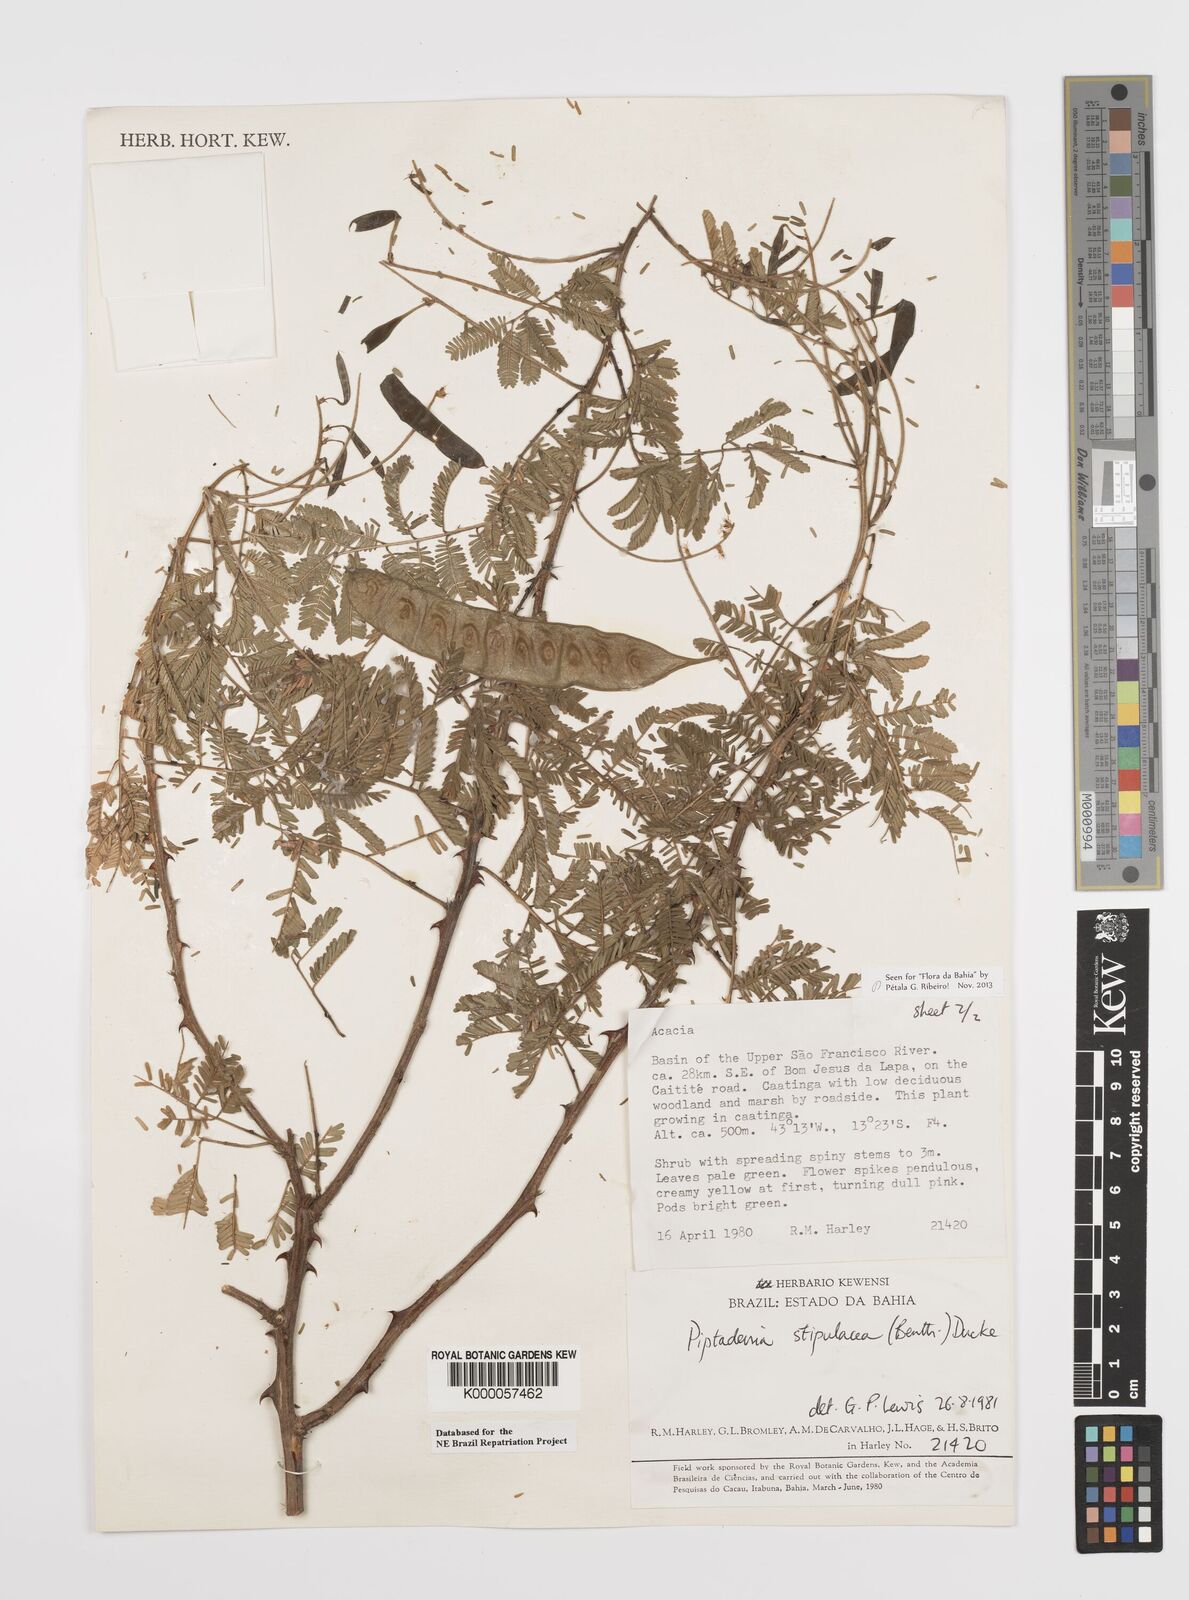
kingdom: Plantae
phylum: Tracheophyta
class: Magnoliopsida
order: Fabales
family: Fabaceae
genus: Piptadenia
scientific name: Piptadenia retusa
